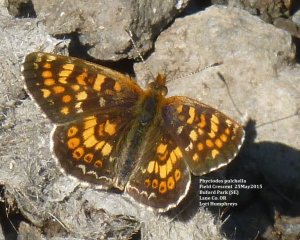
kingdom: Animalia
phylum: Arthropoda
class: Insecta
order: Lepidoptera
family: Nymphalidae
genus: Phyciodes
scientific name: Phyciodes tharos
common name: Field Crescent
